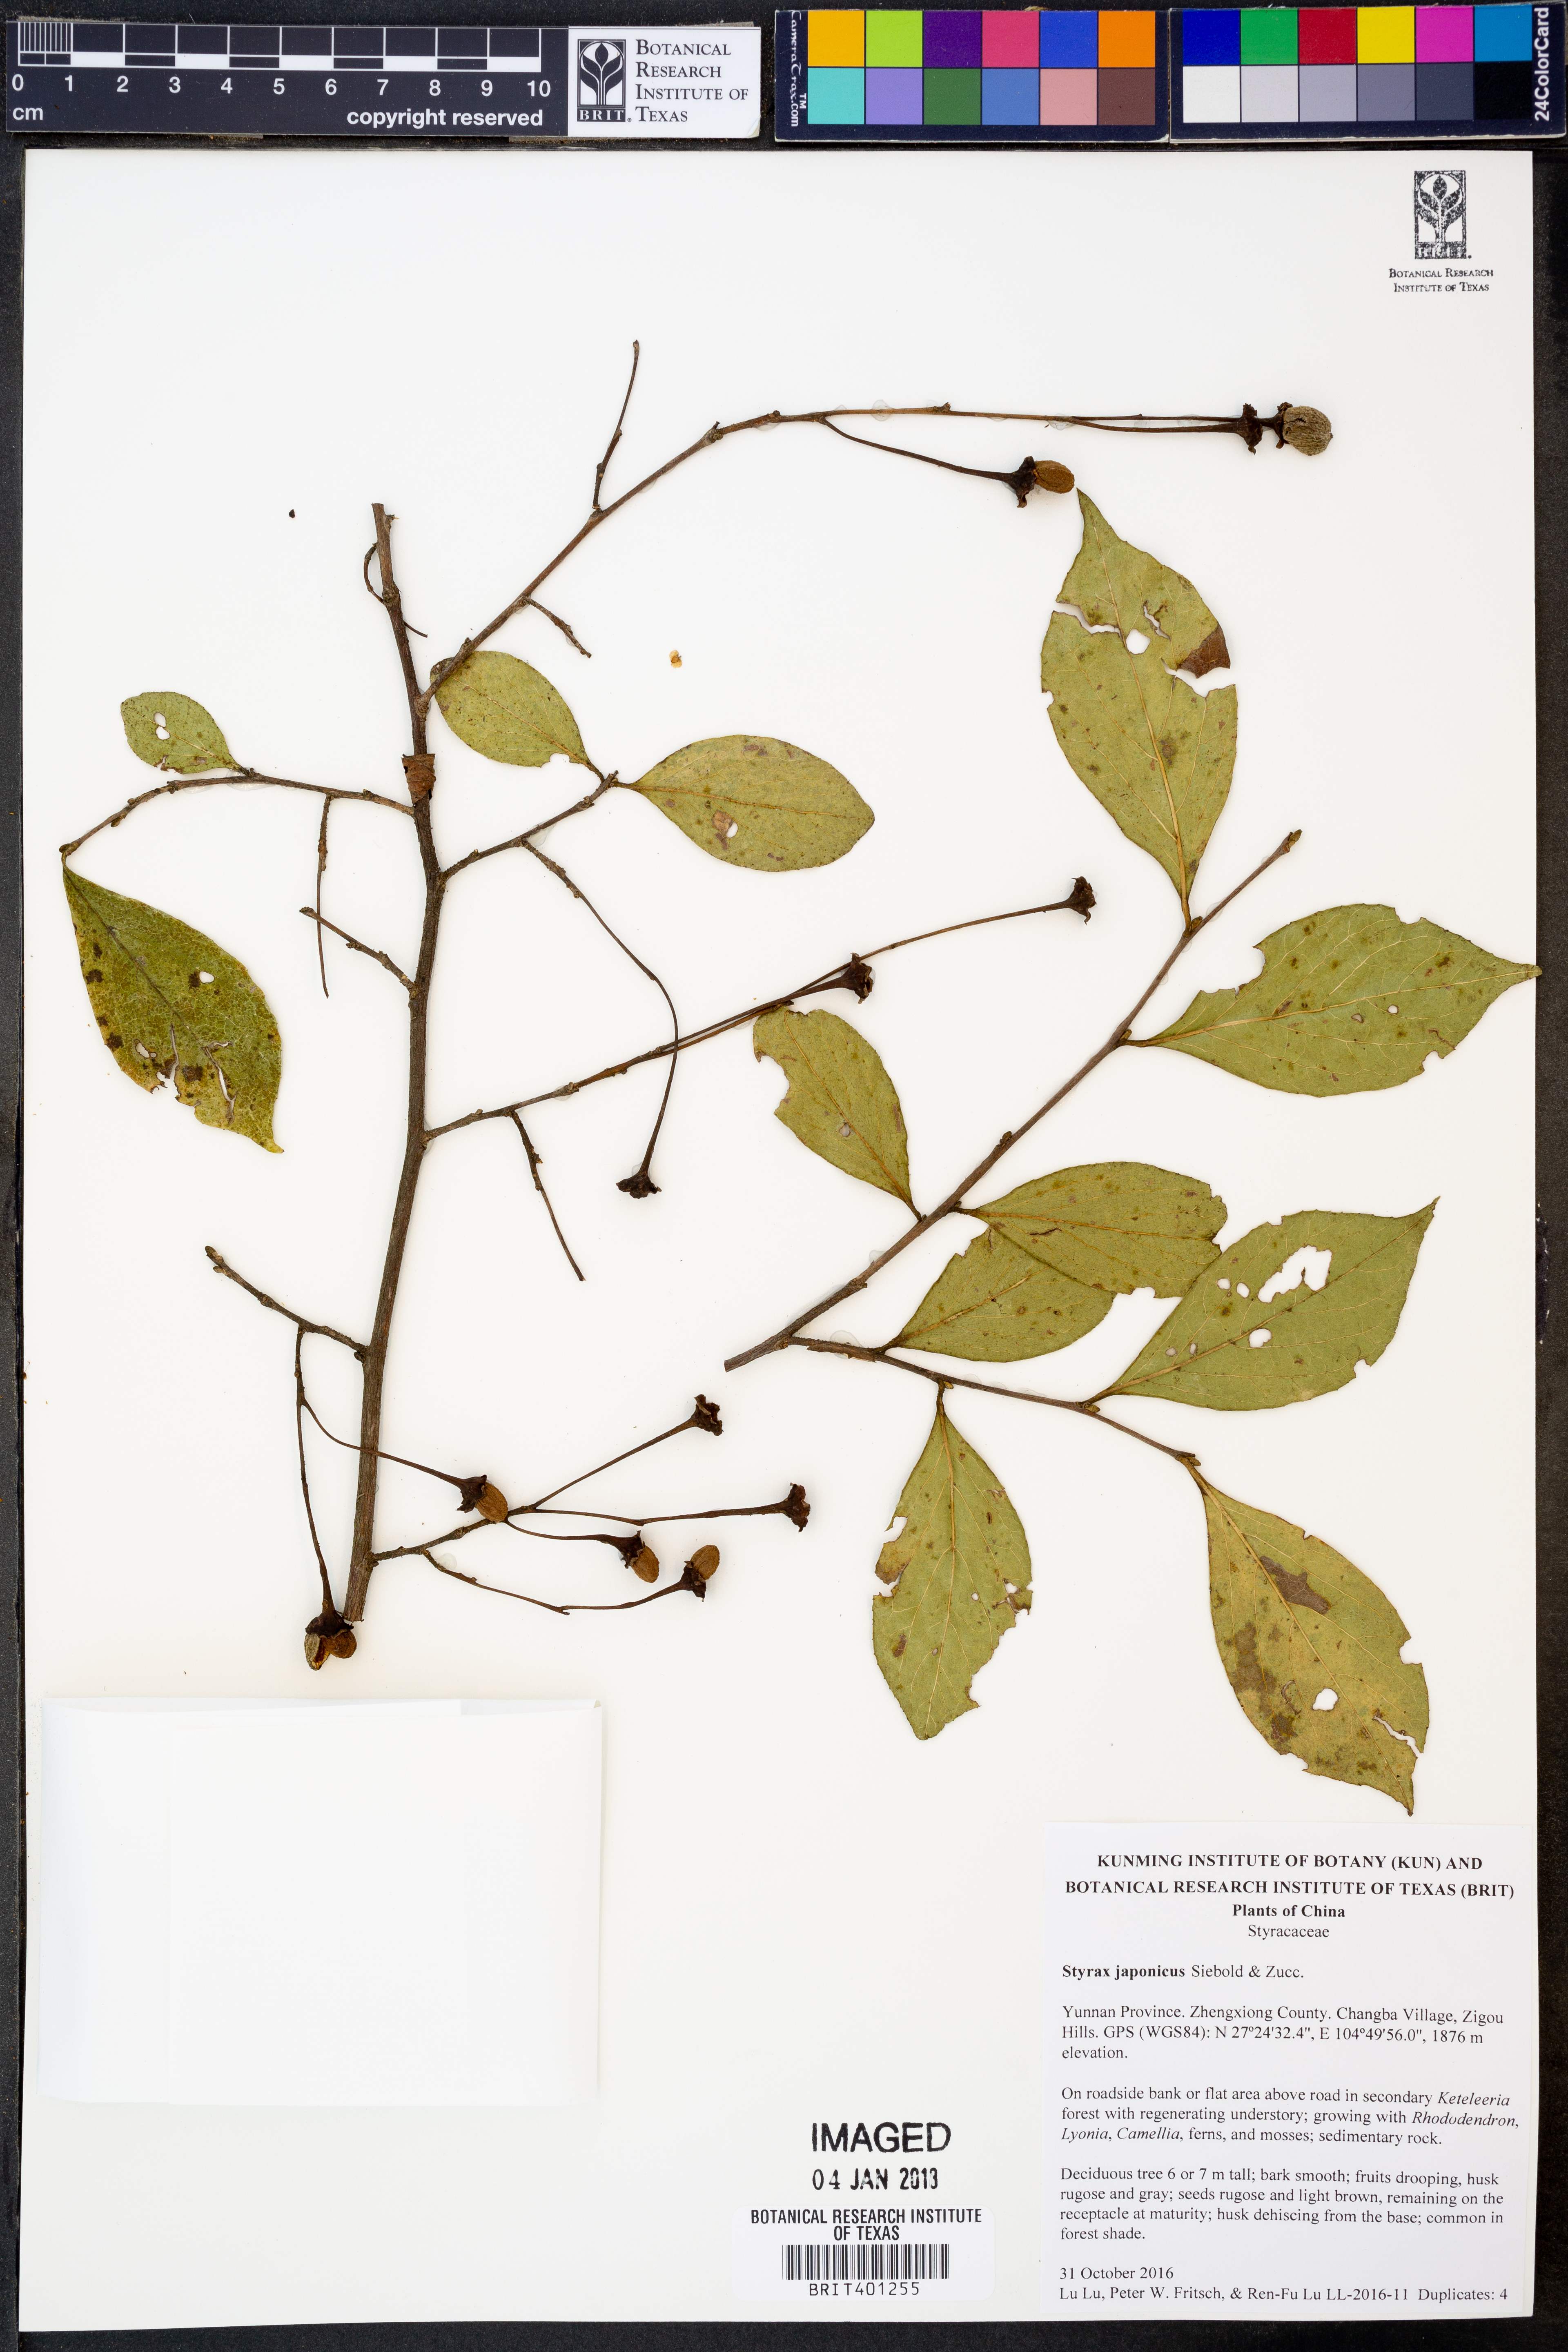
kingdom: Plantae
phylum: Tracheophyta
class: Magnoliopsida
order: Ericales
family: Styracaceae
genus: Styrax
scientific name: Styrax japonicus
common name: Japanese snowbell
